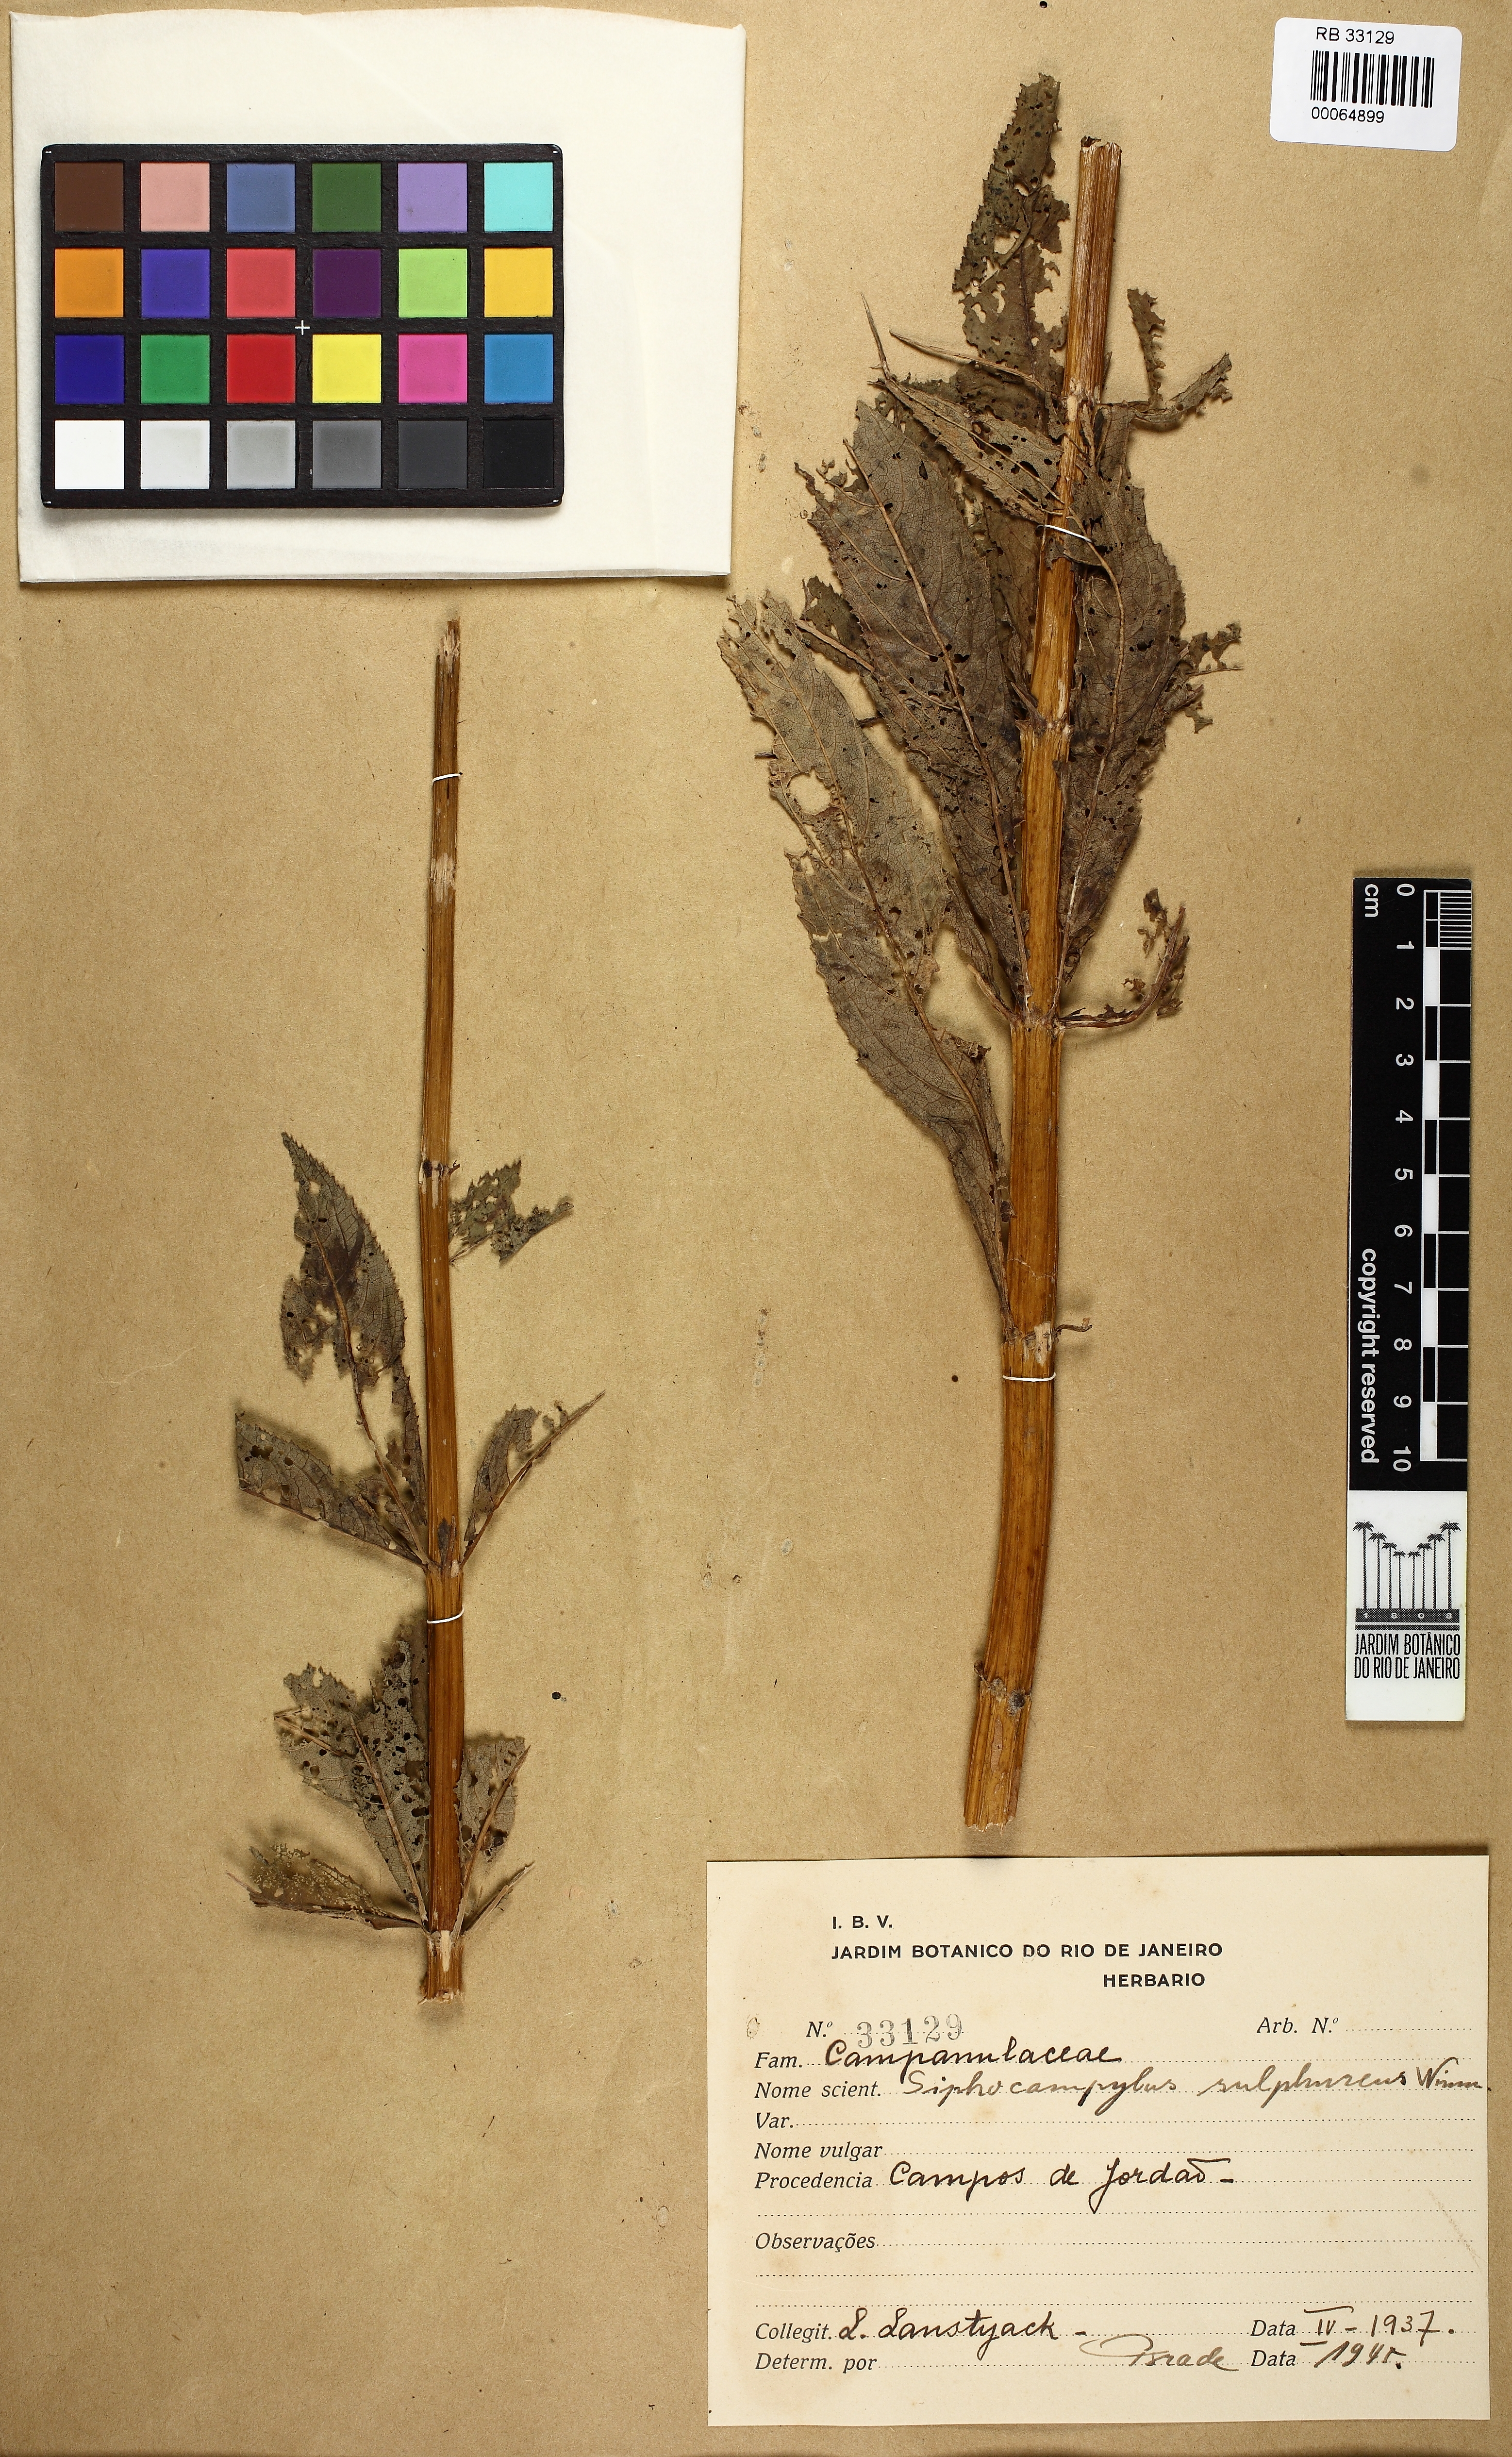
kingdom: Plantae
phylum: Tracheophyta
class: Magnoliopsida
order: Asterales
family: Campanulaceae
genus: Siphocampylus
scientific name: Siphocampylus sulfureus
